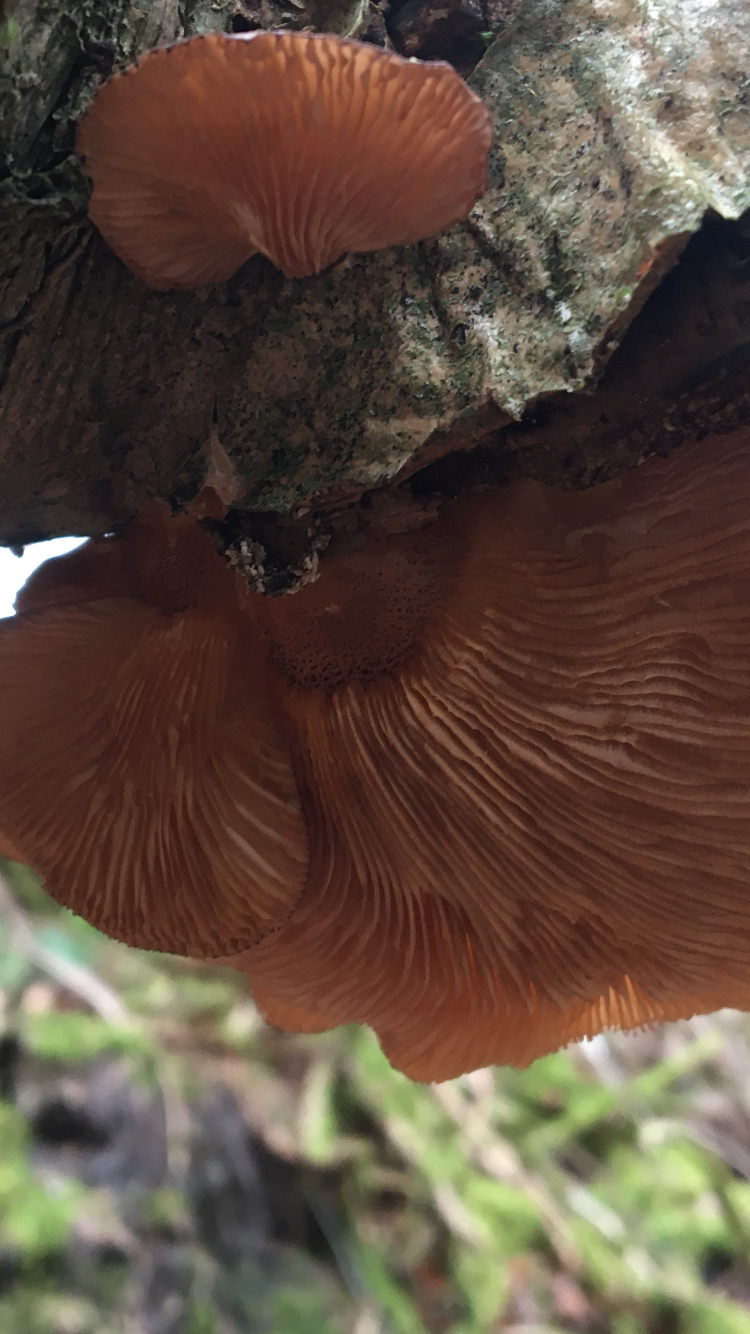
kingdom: Fungi
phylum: Basidiomycota
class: Agaricomycetes
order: Agaricales
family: Sarcomyxaceae
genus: Sarcomyxa
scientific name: Sarcomyxa serotina
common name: gummihat
